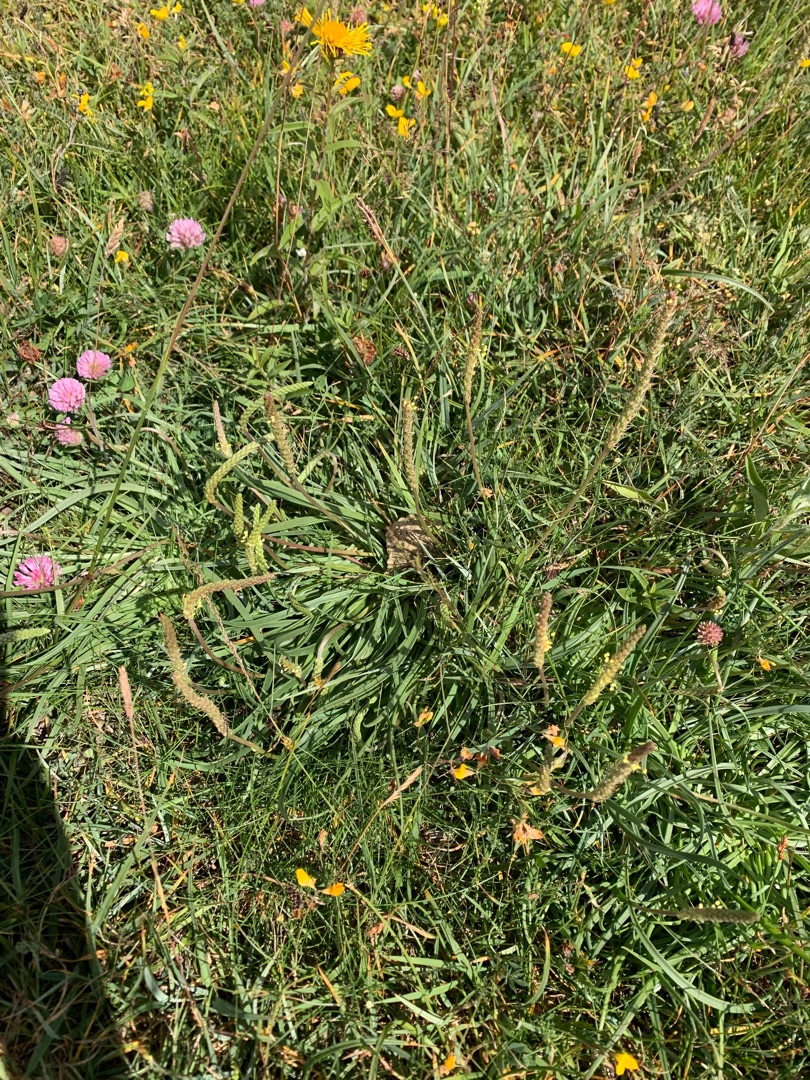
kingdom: Plantae
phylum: Tracheophyta
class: Magnoliopsida
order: Lamiales
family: Plantaginaceae
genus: Plantago
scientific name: Plantago maritima
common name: Strand-vejbred
